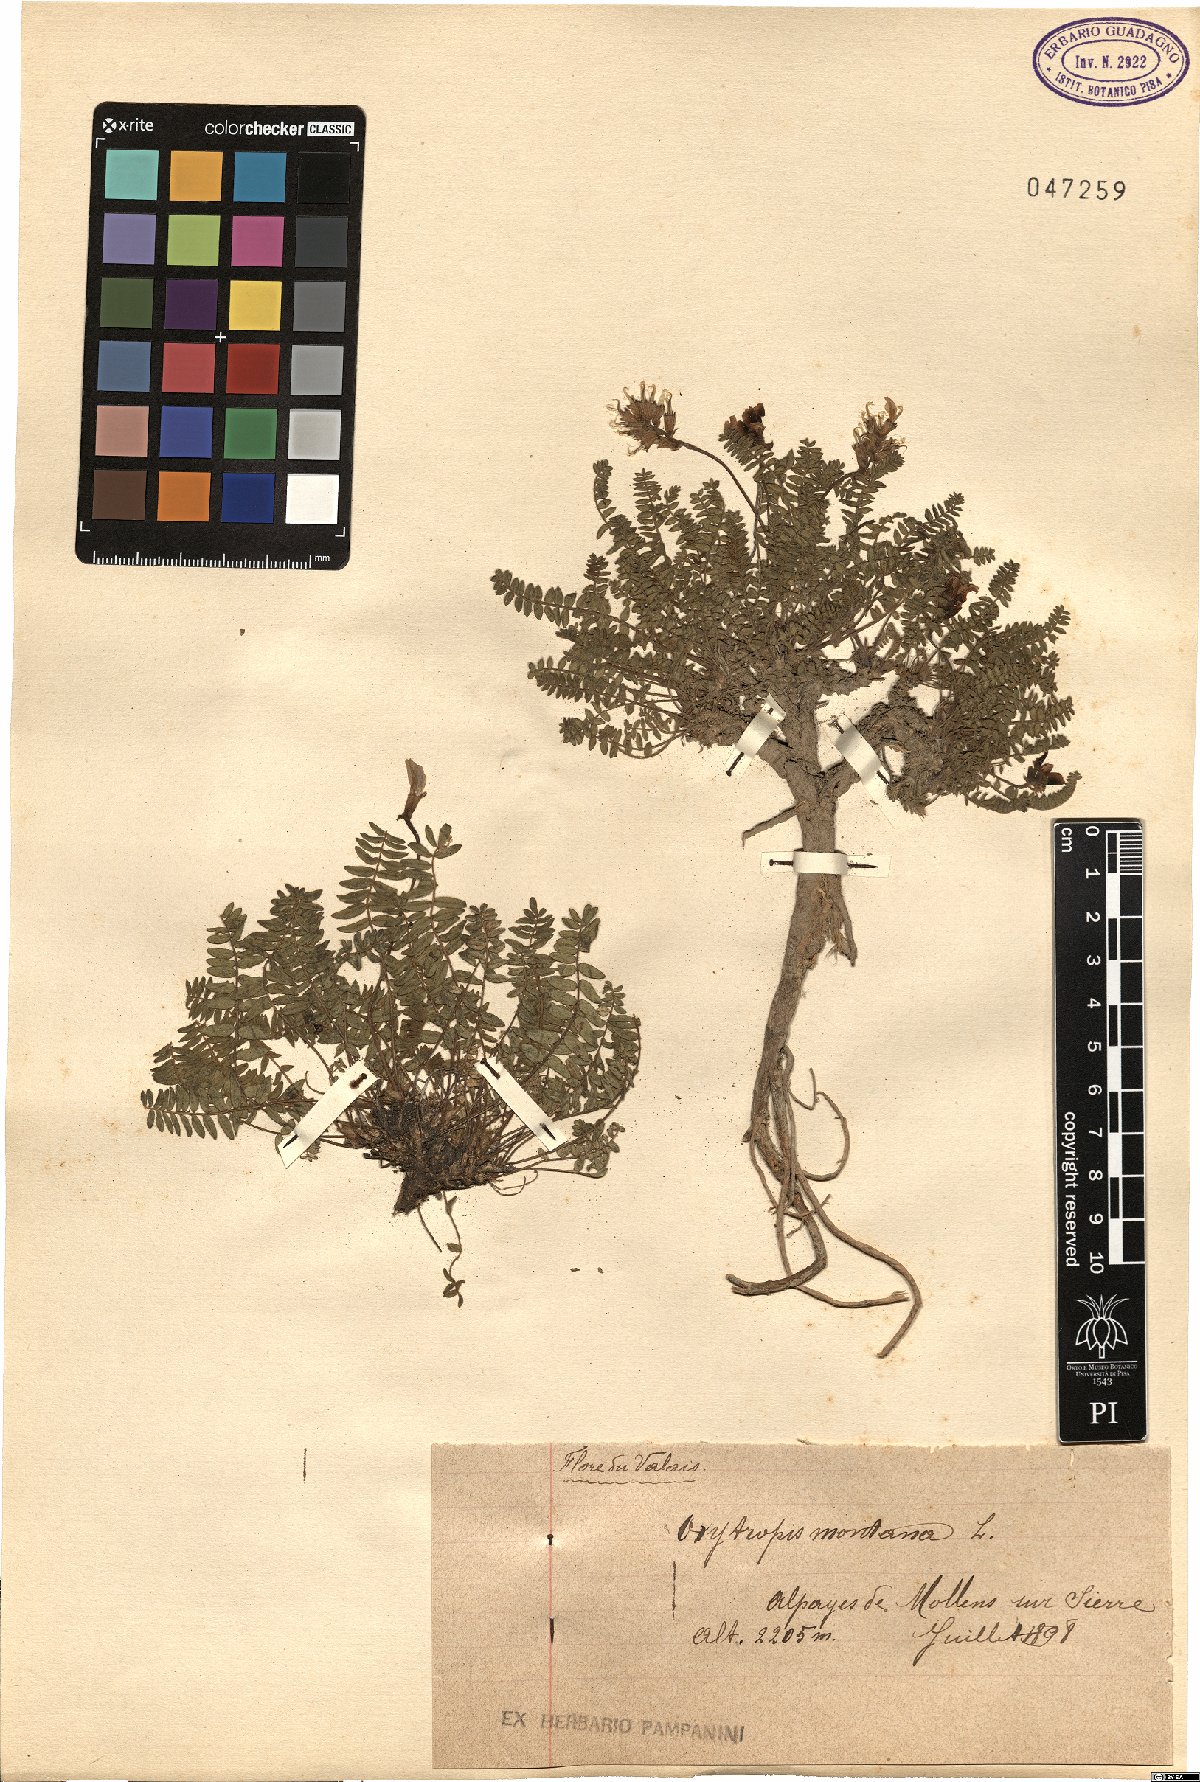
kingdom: Plantae
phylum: Tracheophyta
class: Magnoliopsida
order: Fabales
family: Fabaceae
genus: Oxytropis
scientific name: Oxytropis montana
